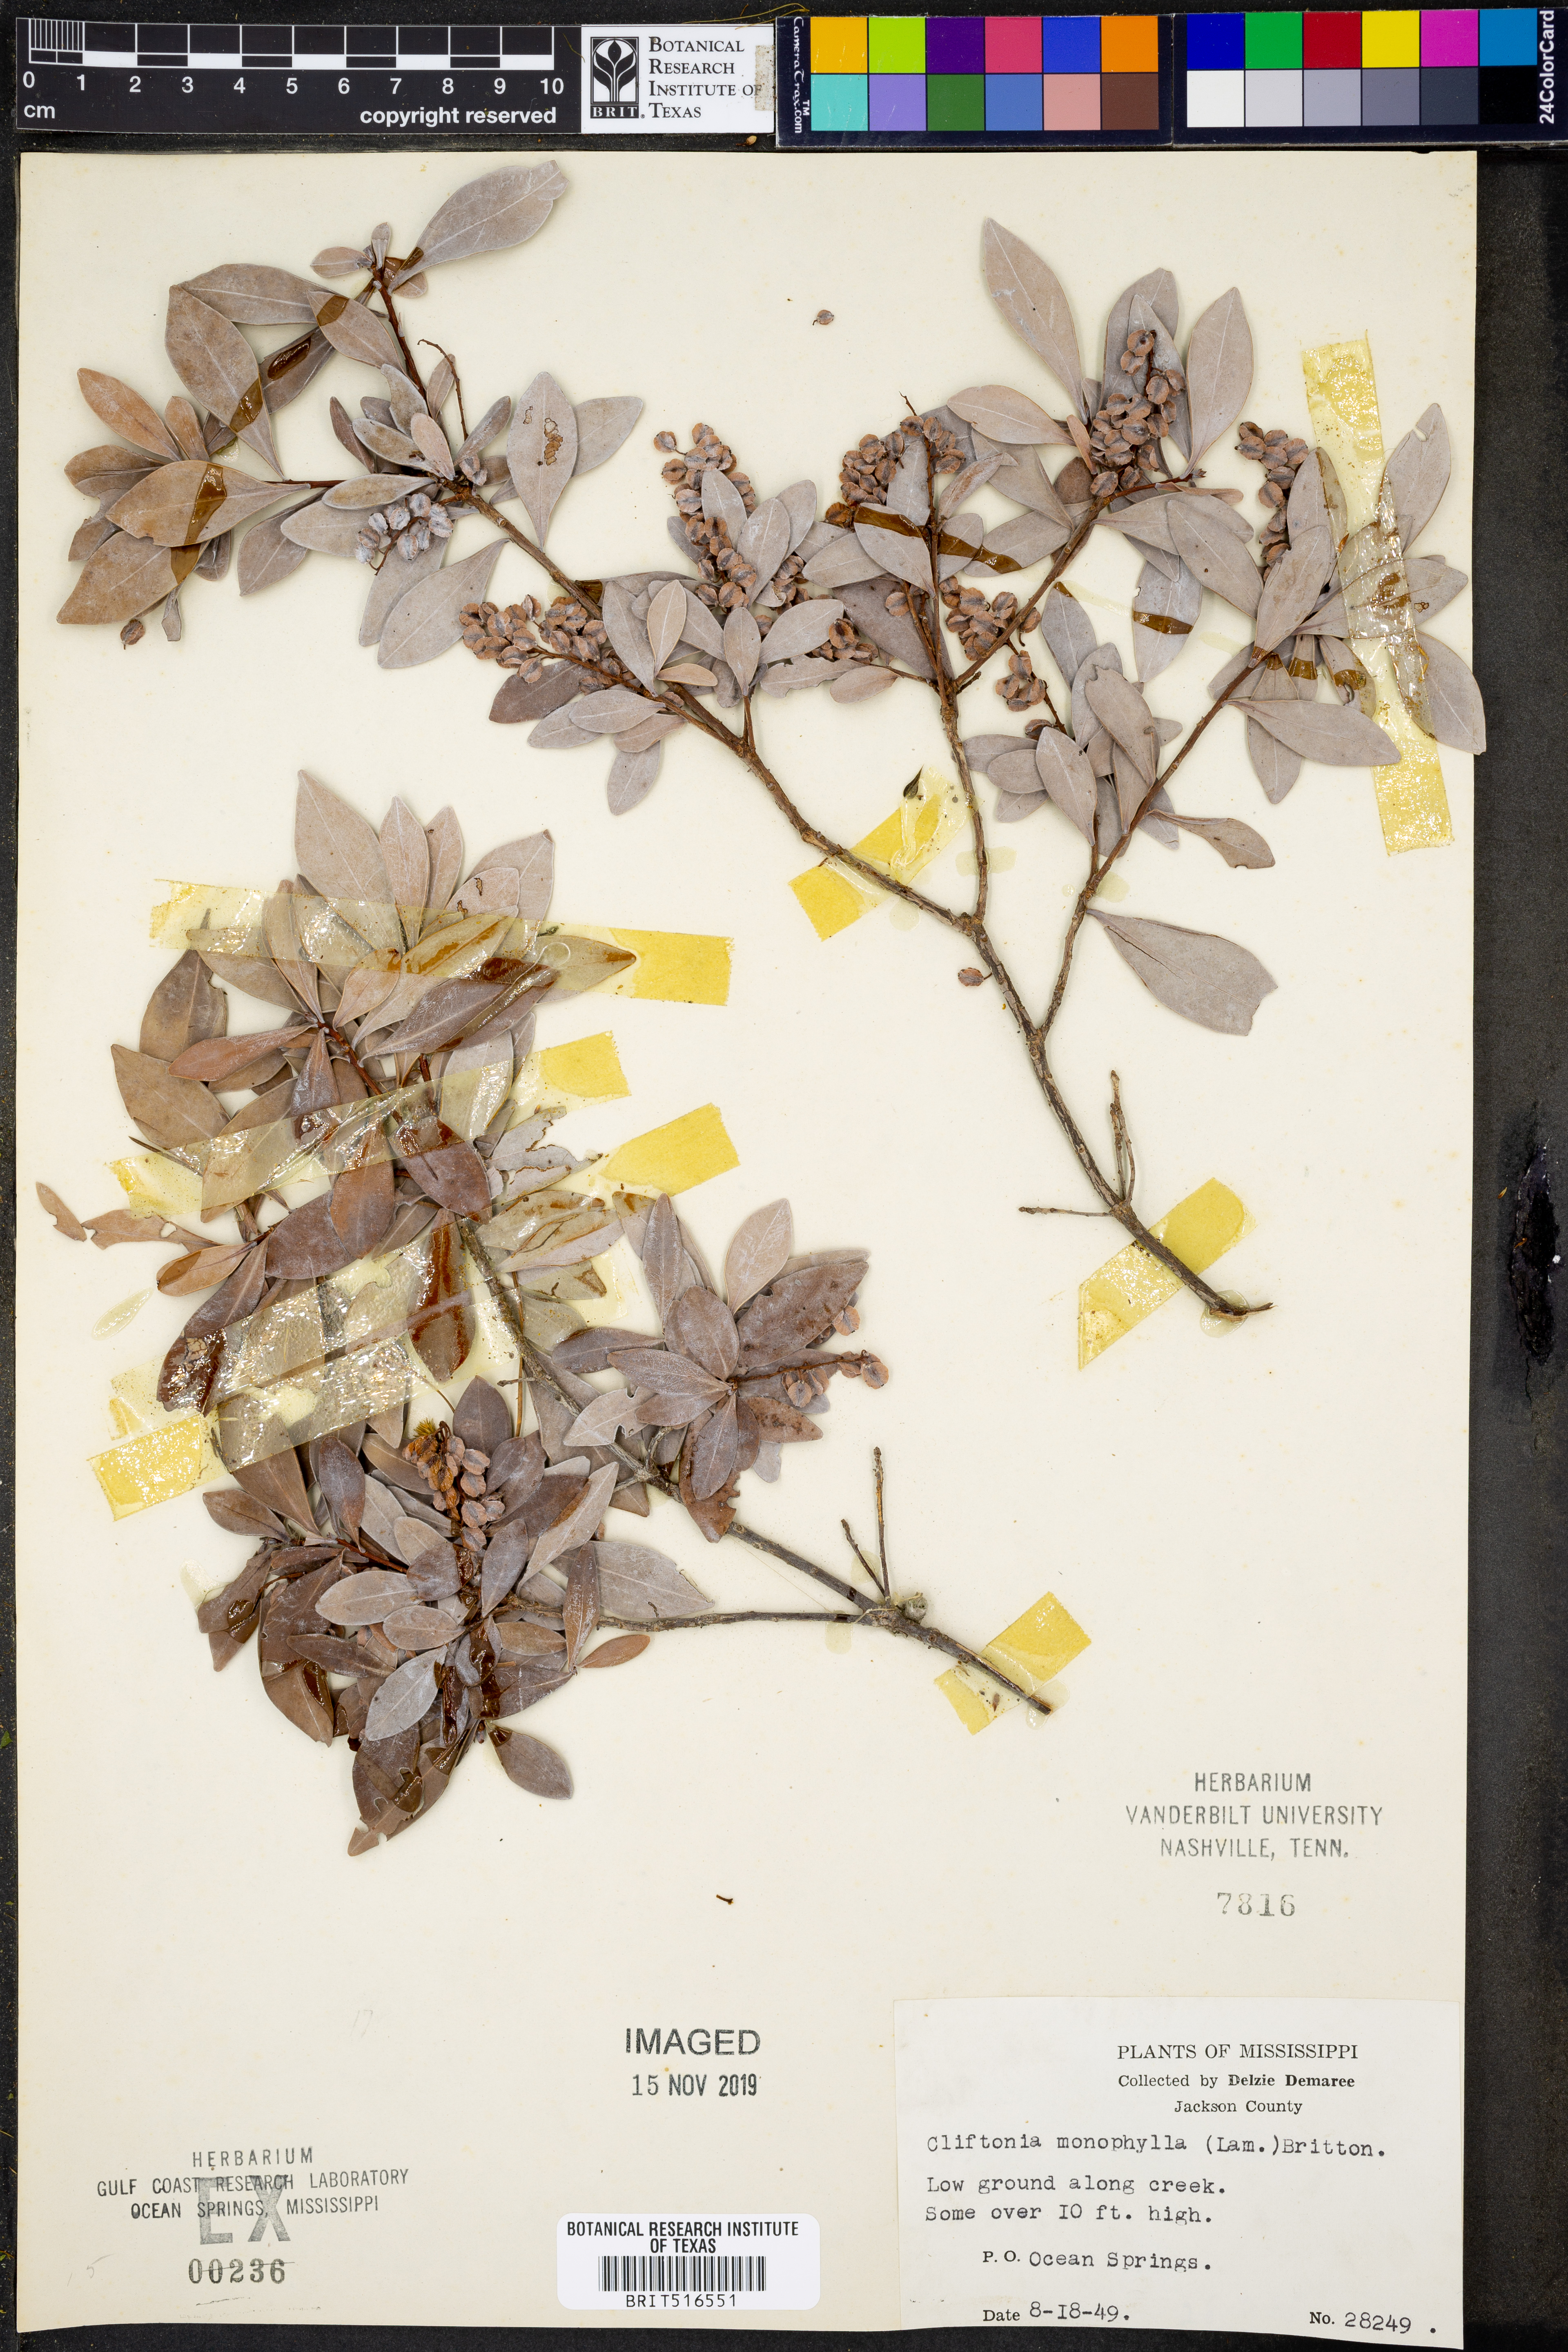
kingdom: Plantae
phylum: Tracheophyta
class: Magnoliopsida
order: Ericales
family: Cyrillaceae
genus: Cliftonia
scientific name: Cliftonia monophylla
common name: Titi
